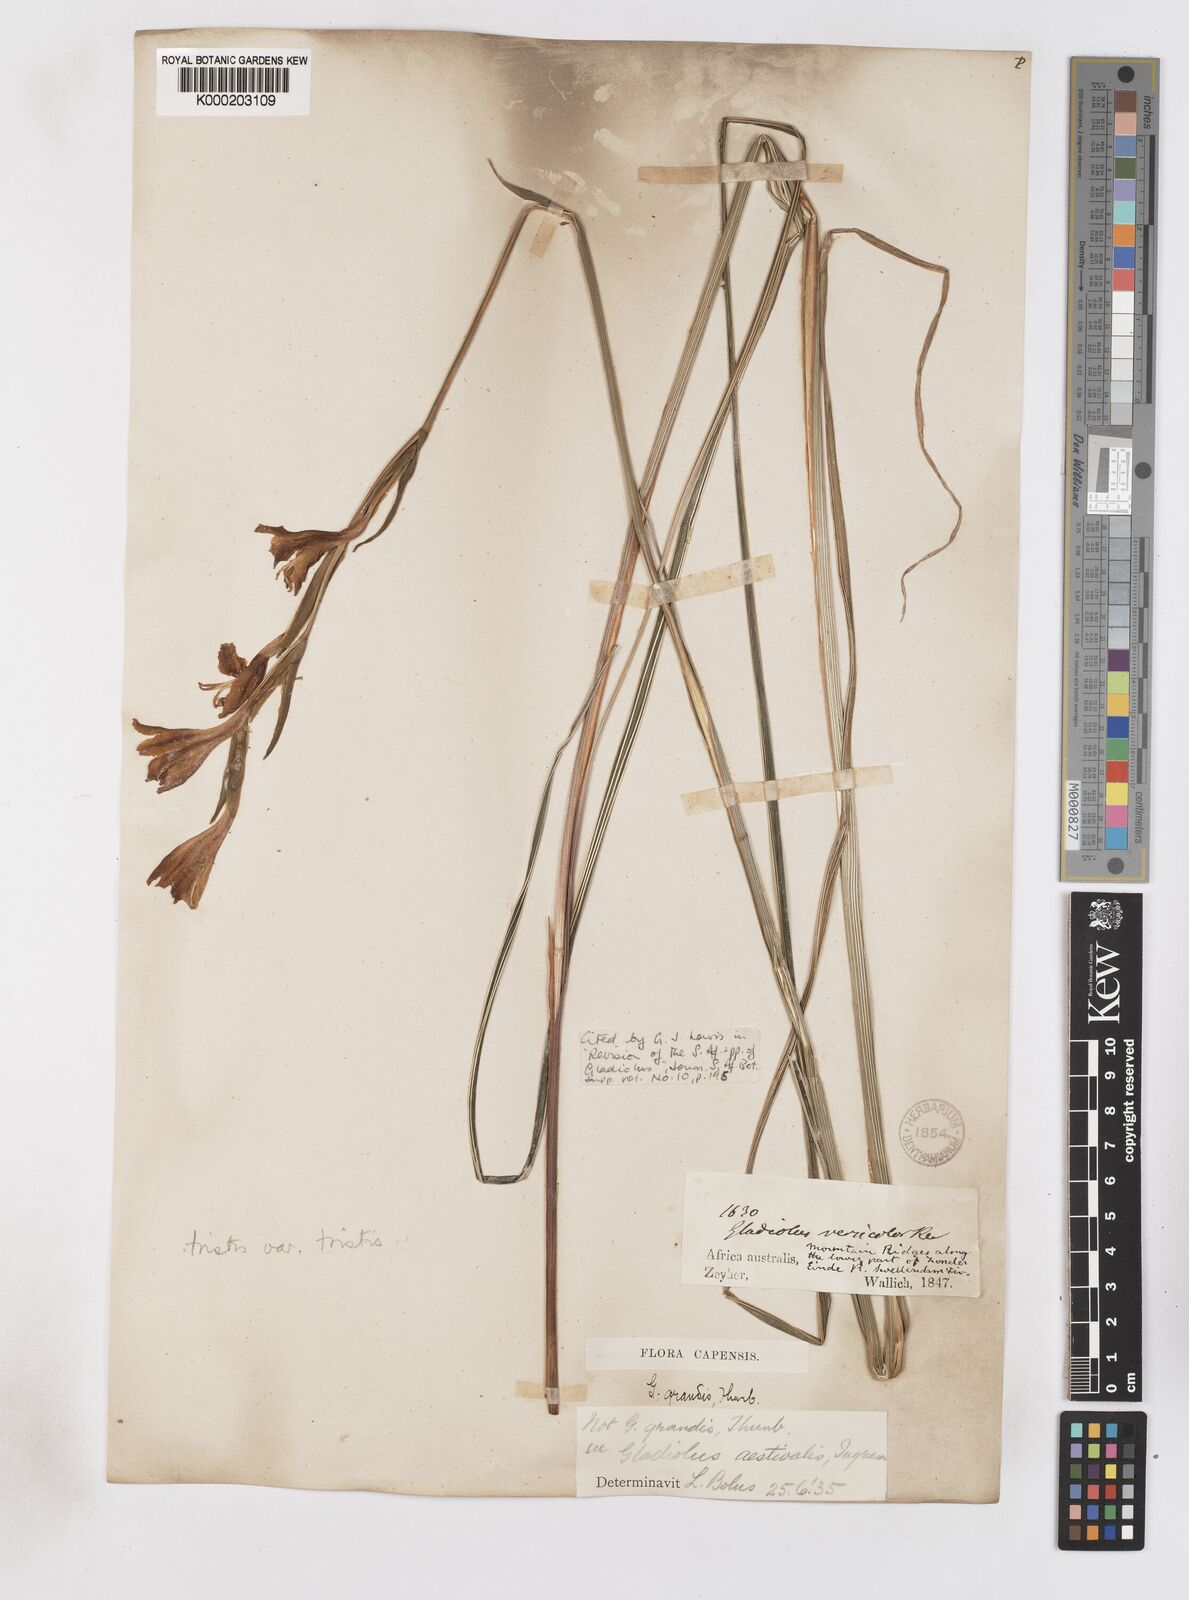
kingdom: Plantae
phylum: Tracheophyta
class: Liliopsida
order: Asparagales
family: Iridaceae
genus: Gladiolus
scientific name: Gladiolus tristis
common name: Ever-flowering gladiolus
